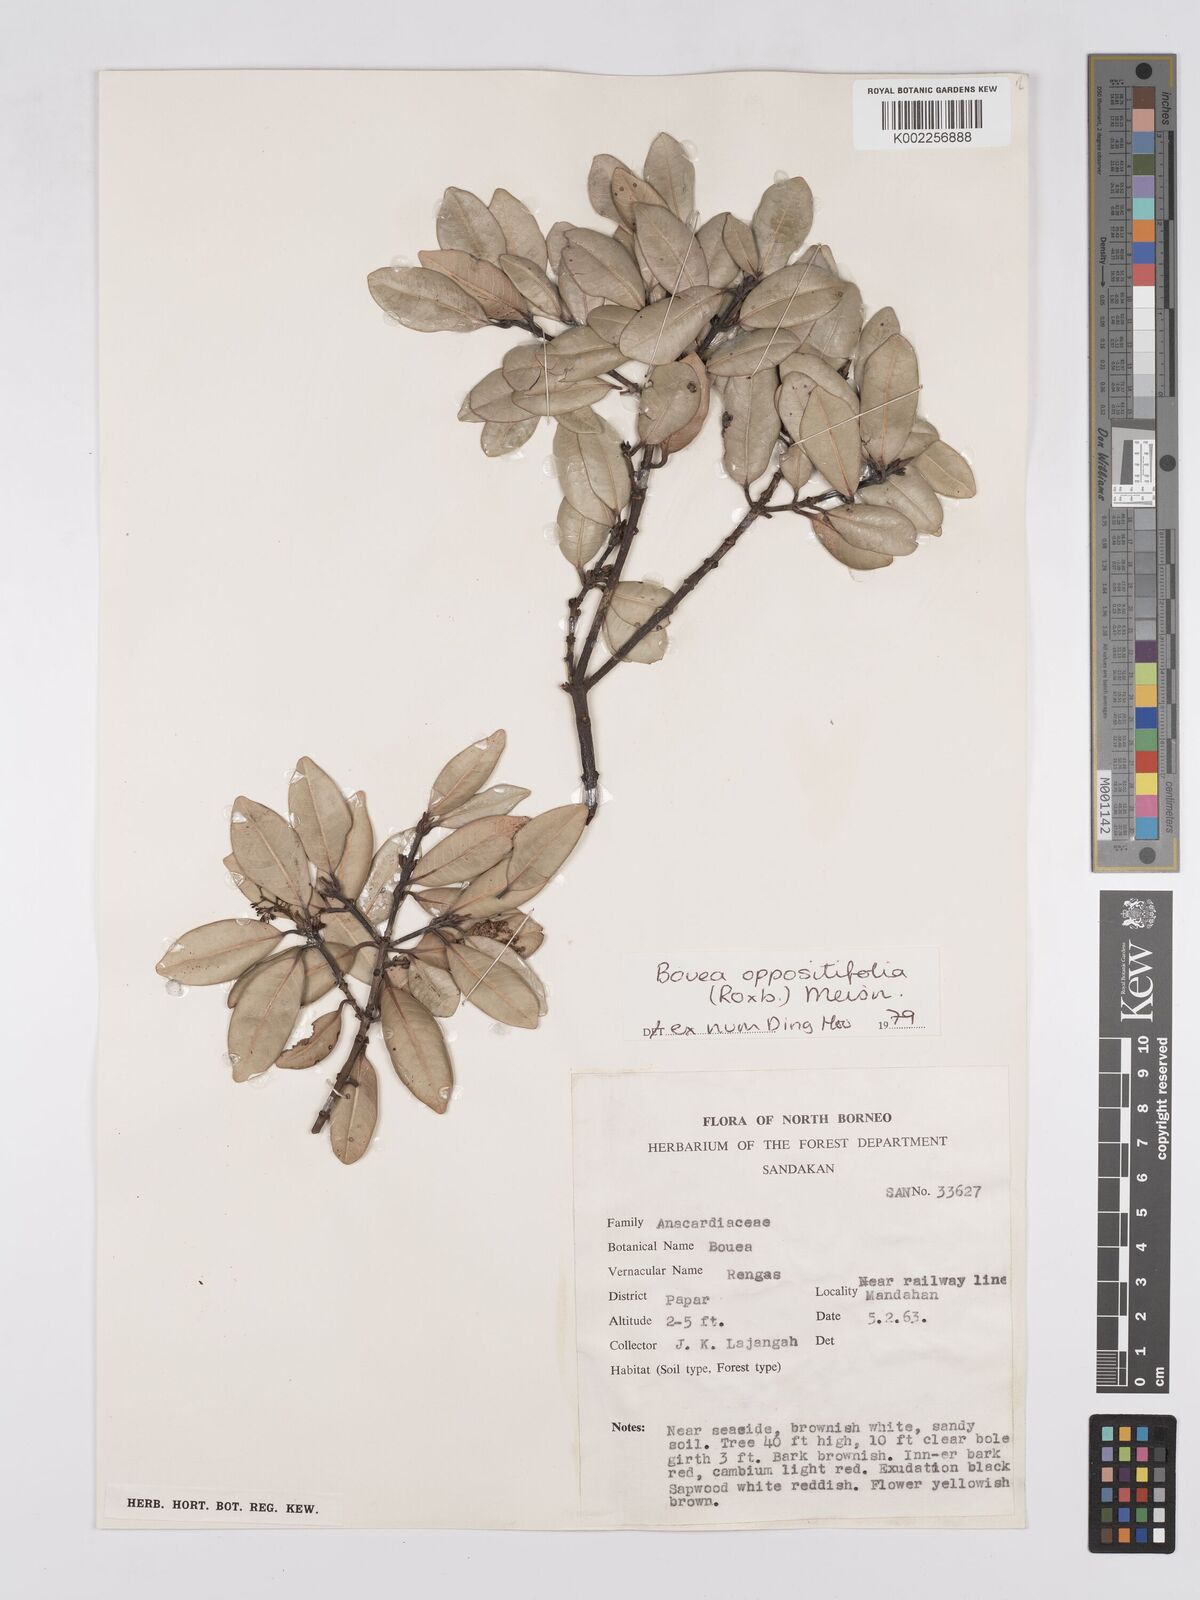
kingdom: Plantae
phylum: Tracheophyta
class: Magnoliopsida
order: Sapindales
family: Anacardiaceae
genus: Bouea
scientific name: Bouea oppositifolia
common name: Narrow-leaved kundang
